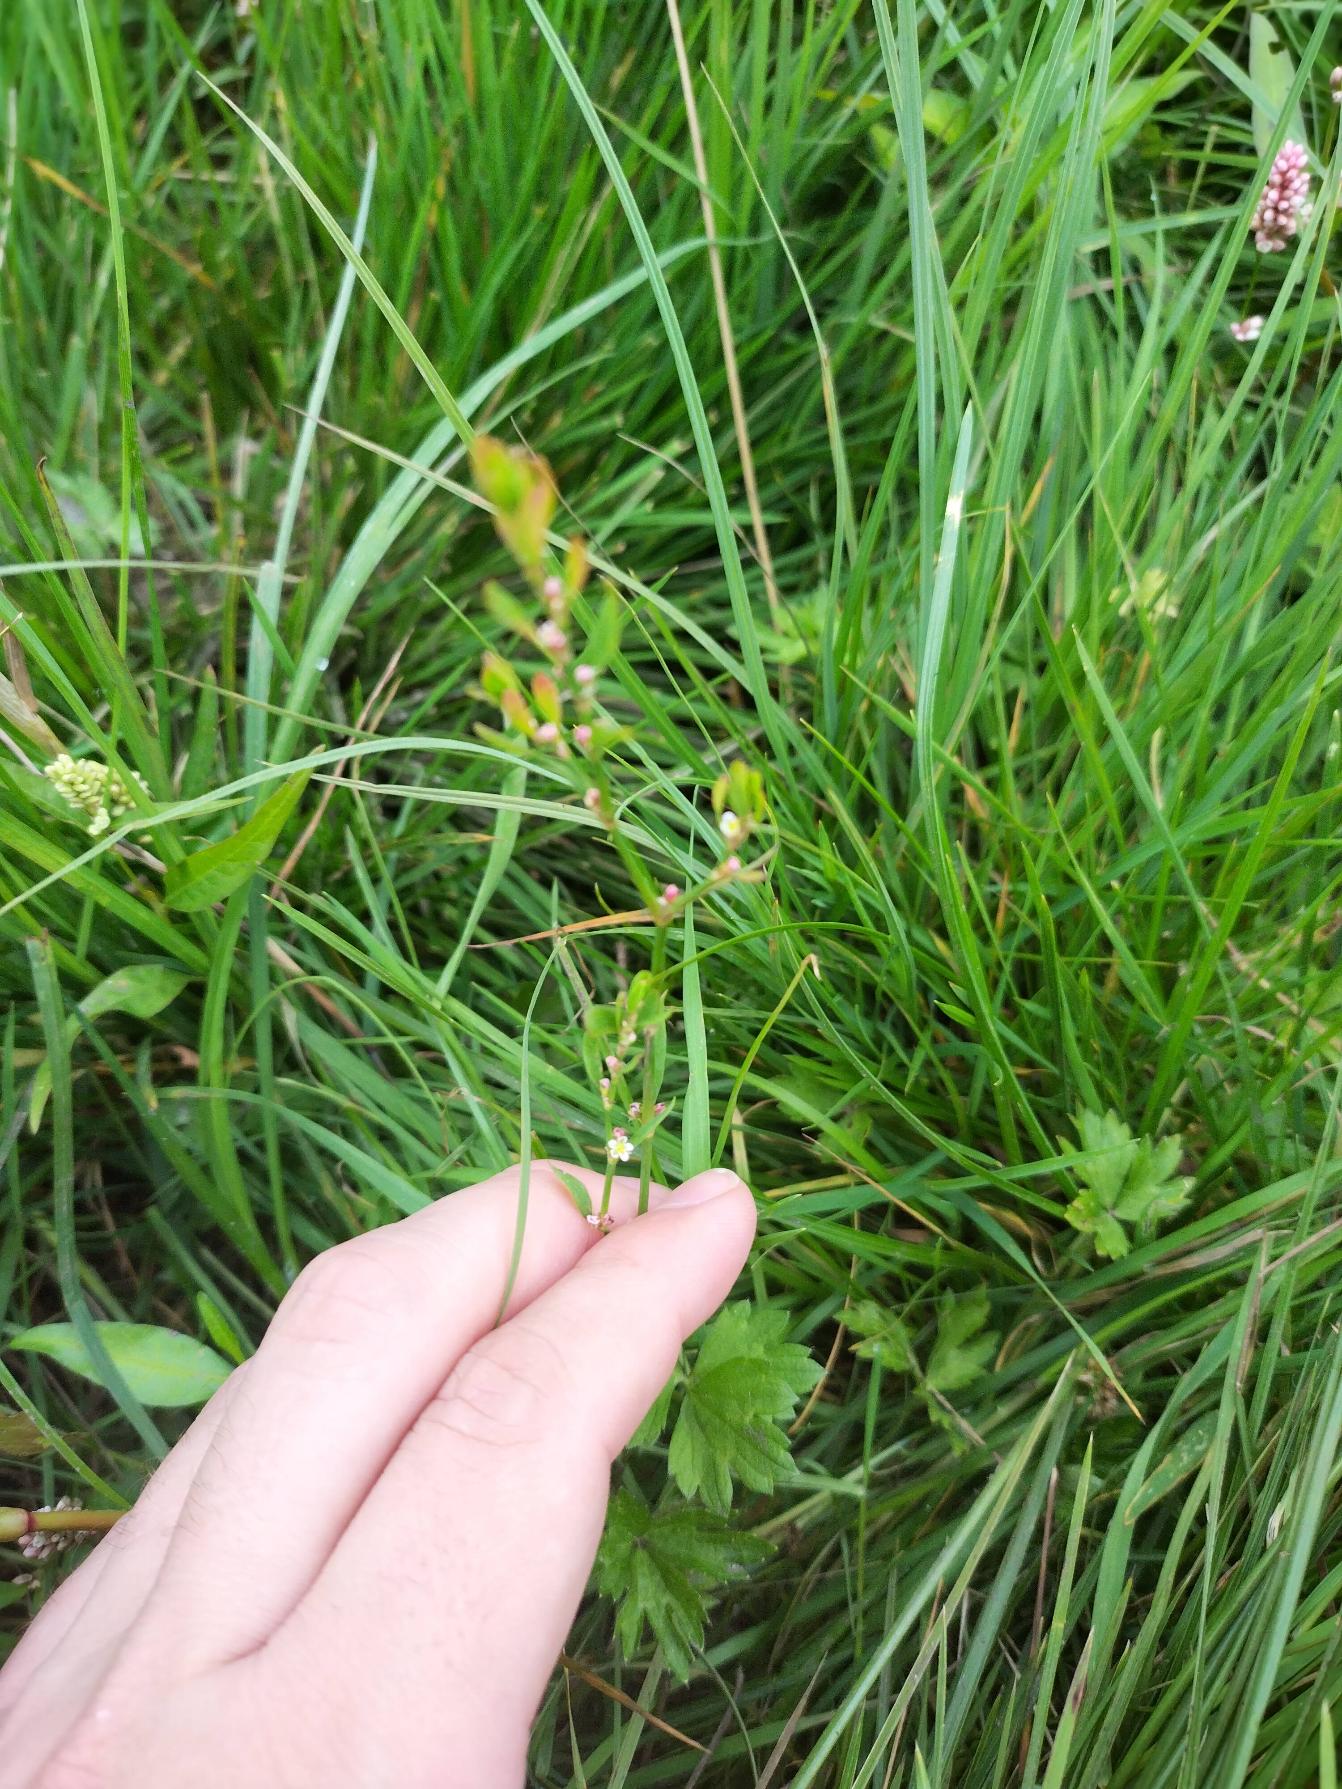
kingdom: Plantae
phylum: Tracheophyta
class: Magnoliopsida
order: Caryophyllales
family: Polygonaceae
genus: Polygonum
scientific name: Polygonum aviculare
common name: Vej-pileurt
